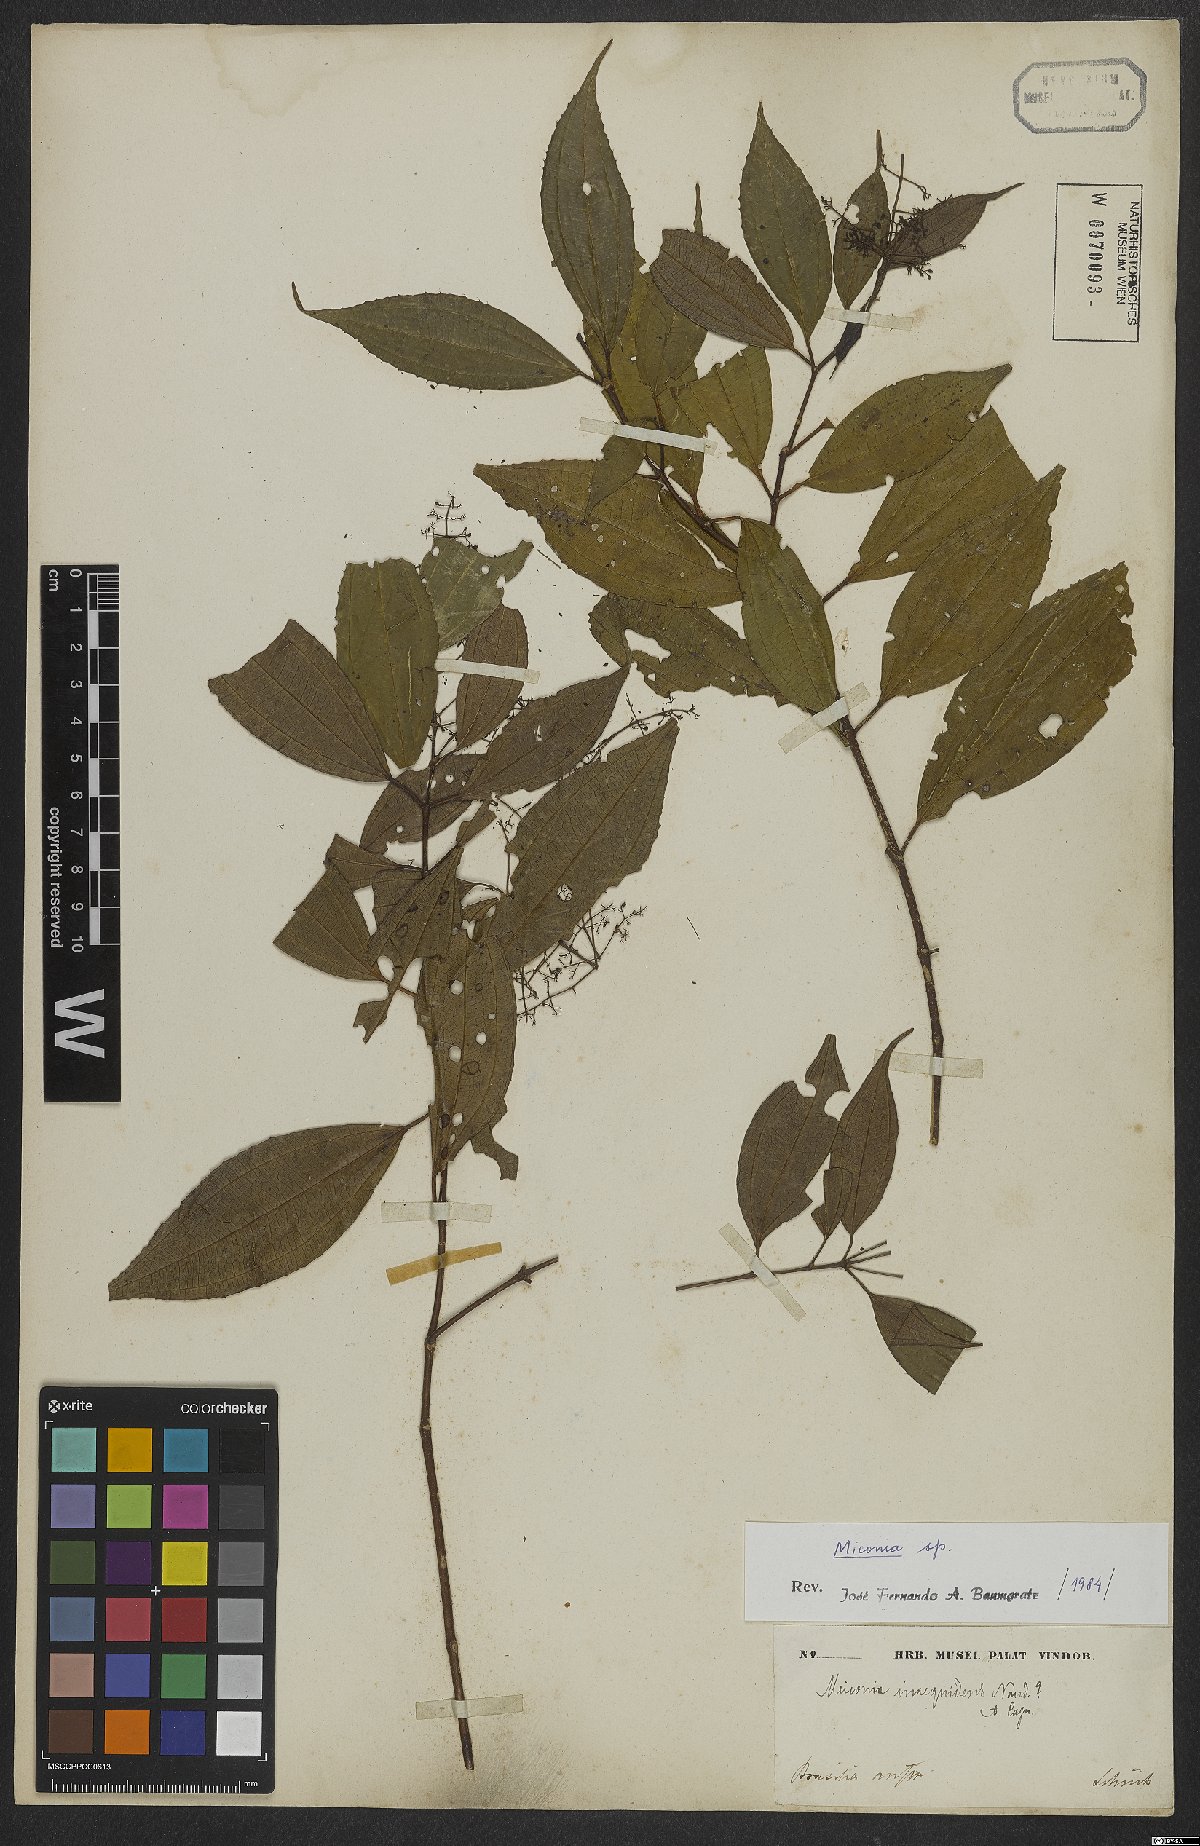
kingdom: Plantae
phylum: Tracheophyta
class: Magnoliopsida
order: Myrtales
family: Melastomataceae
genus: Miconia
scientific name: Miconia
